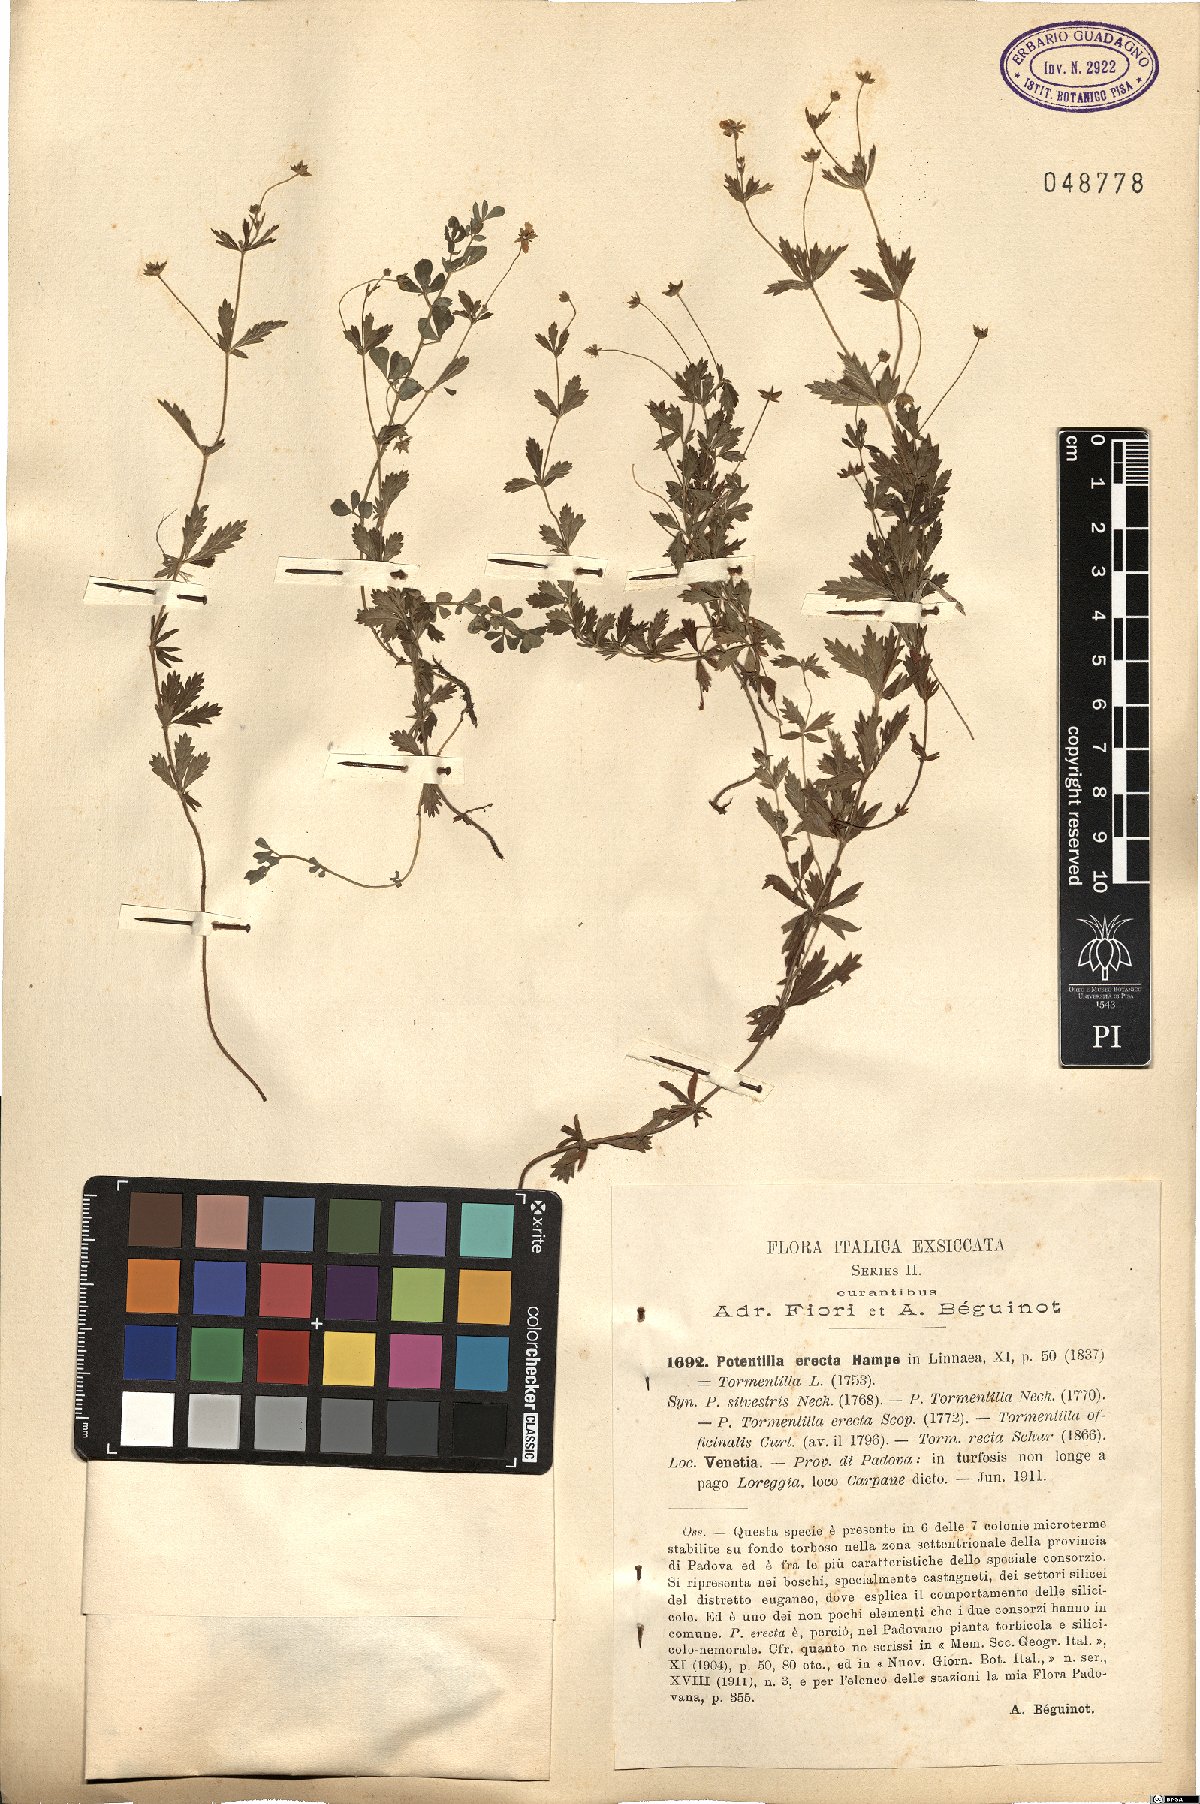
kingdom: Plantae
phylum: Tracheophyta
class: Magnoliopsida
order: Rosales
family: Rosaceae
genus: Potentilla
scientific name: Potentilla erecta
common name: Tormentil
